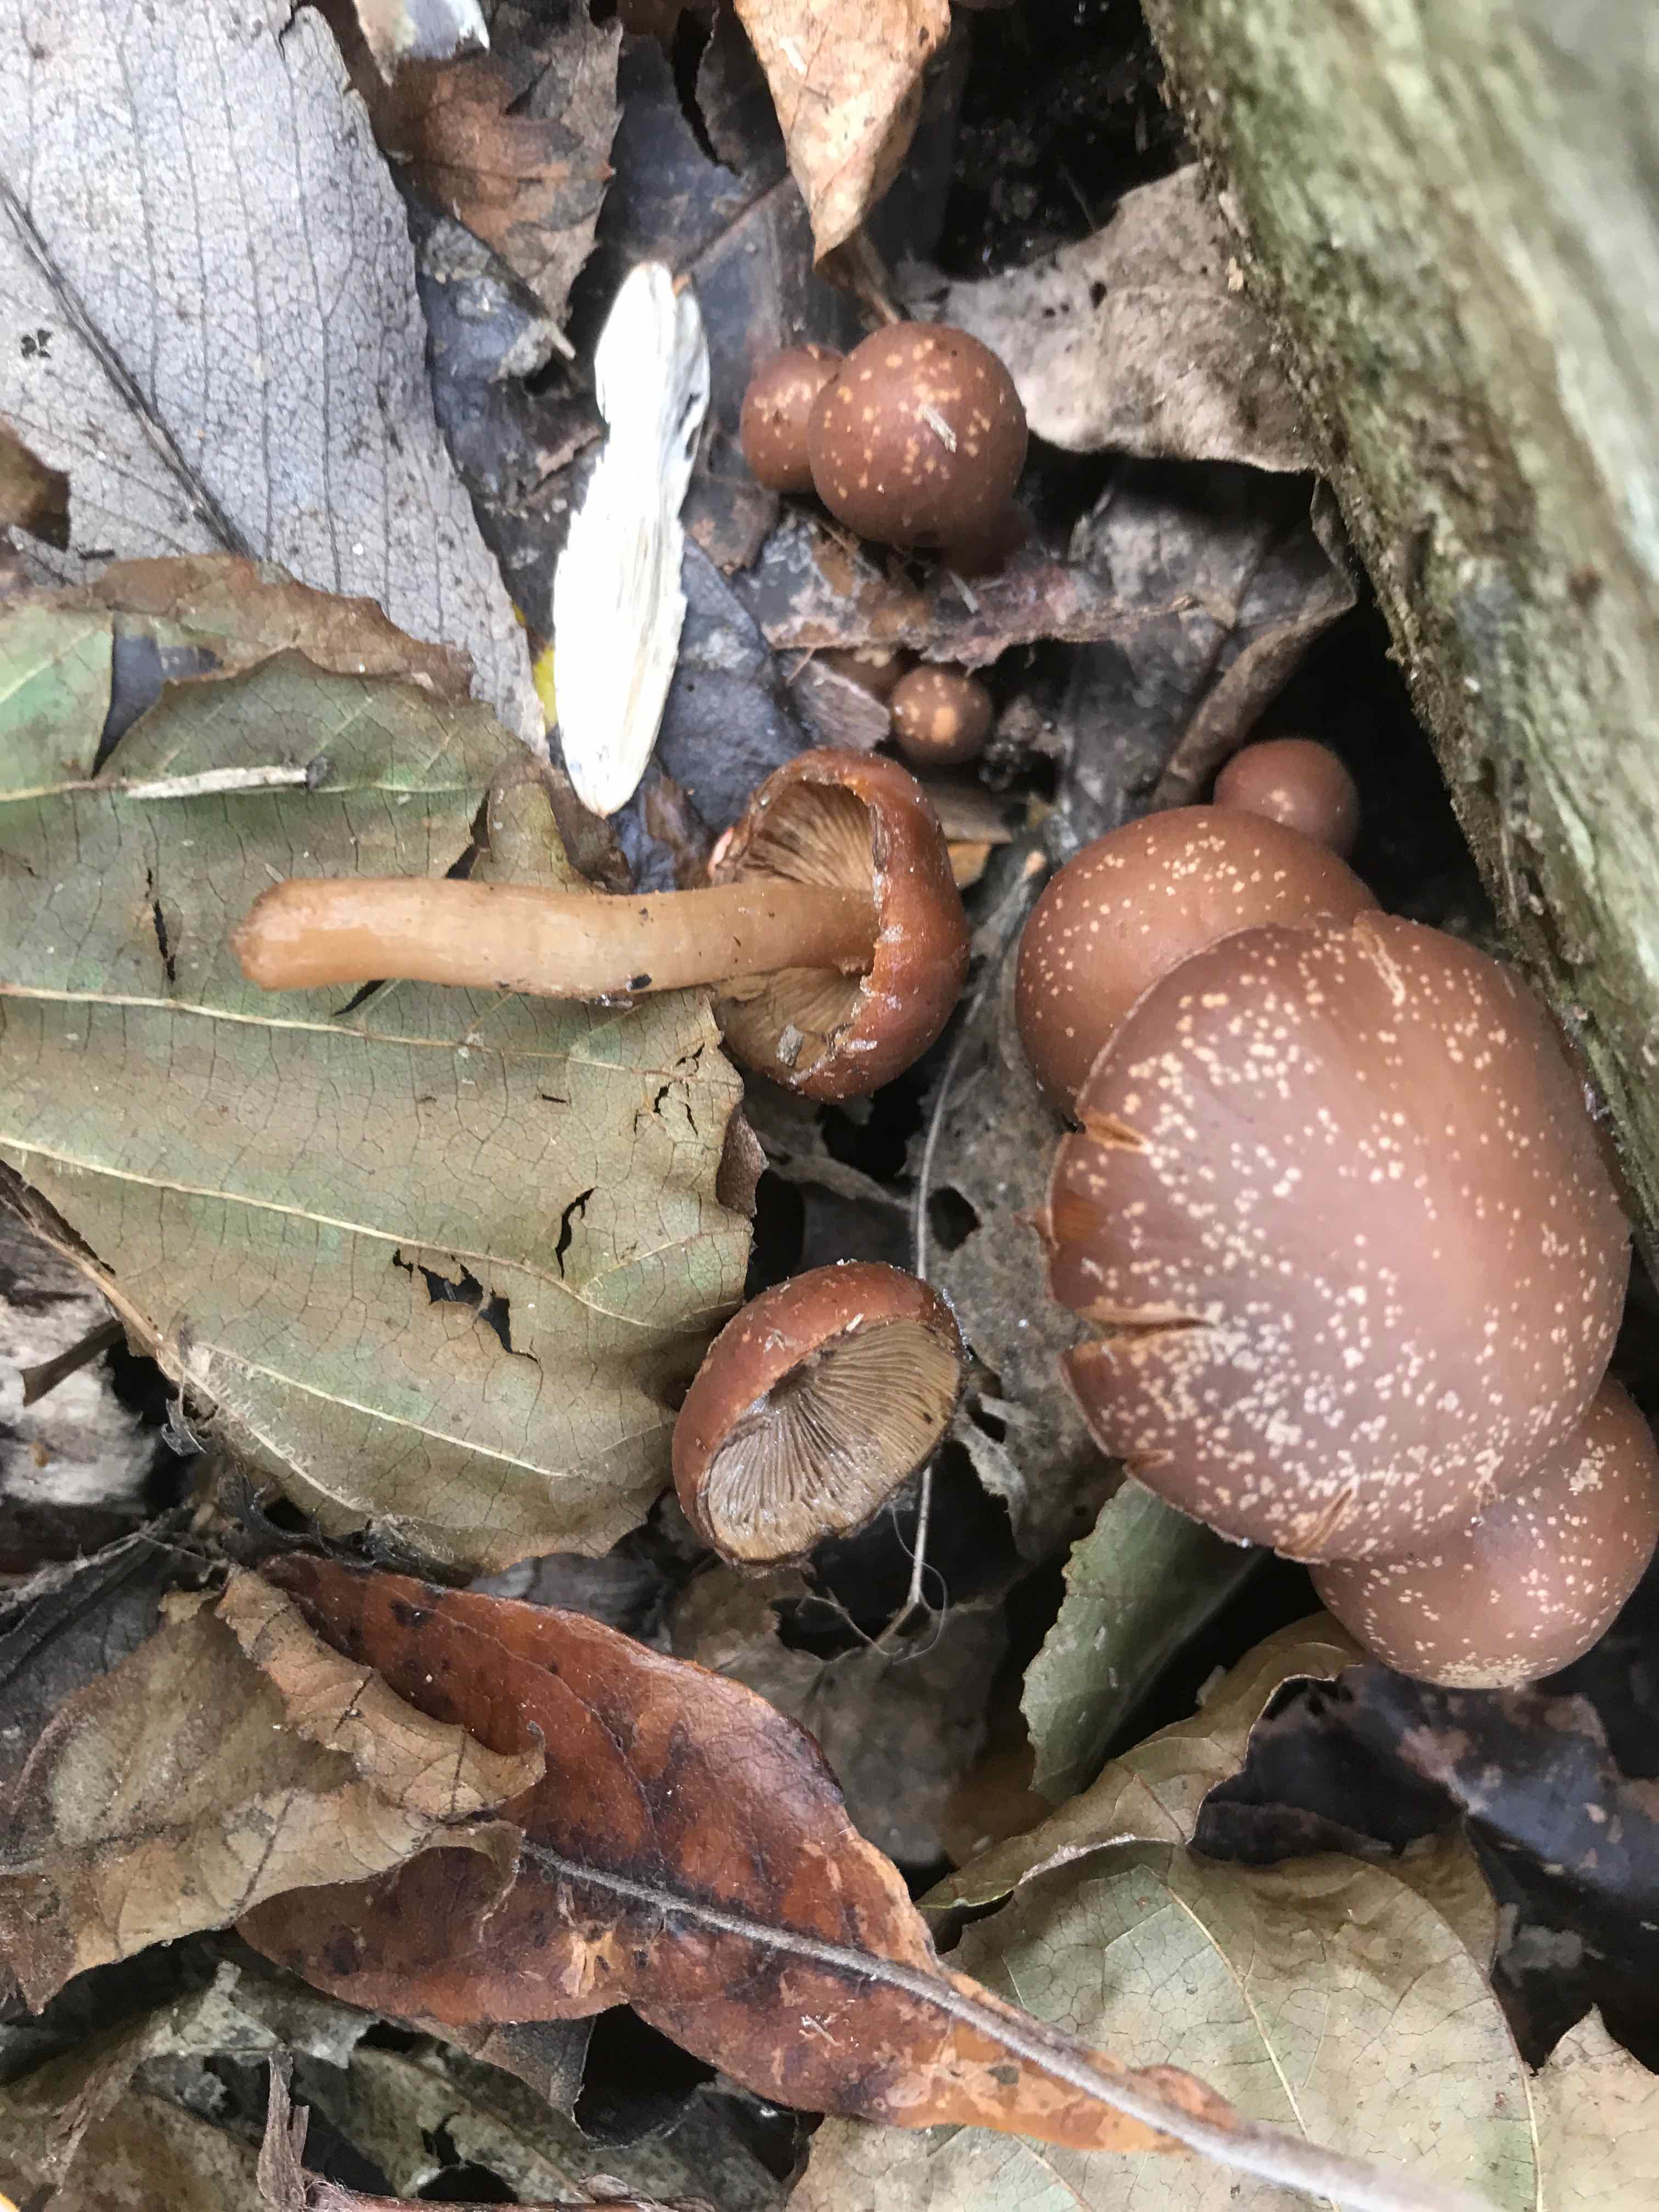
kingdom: Fungi
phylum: Basidiomycota
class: Agaricomycetes
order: Agaricales
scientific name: Agaricales
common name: champignonordenen
